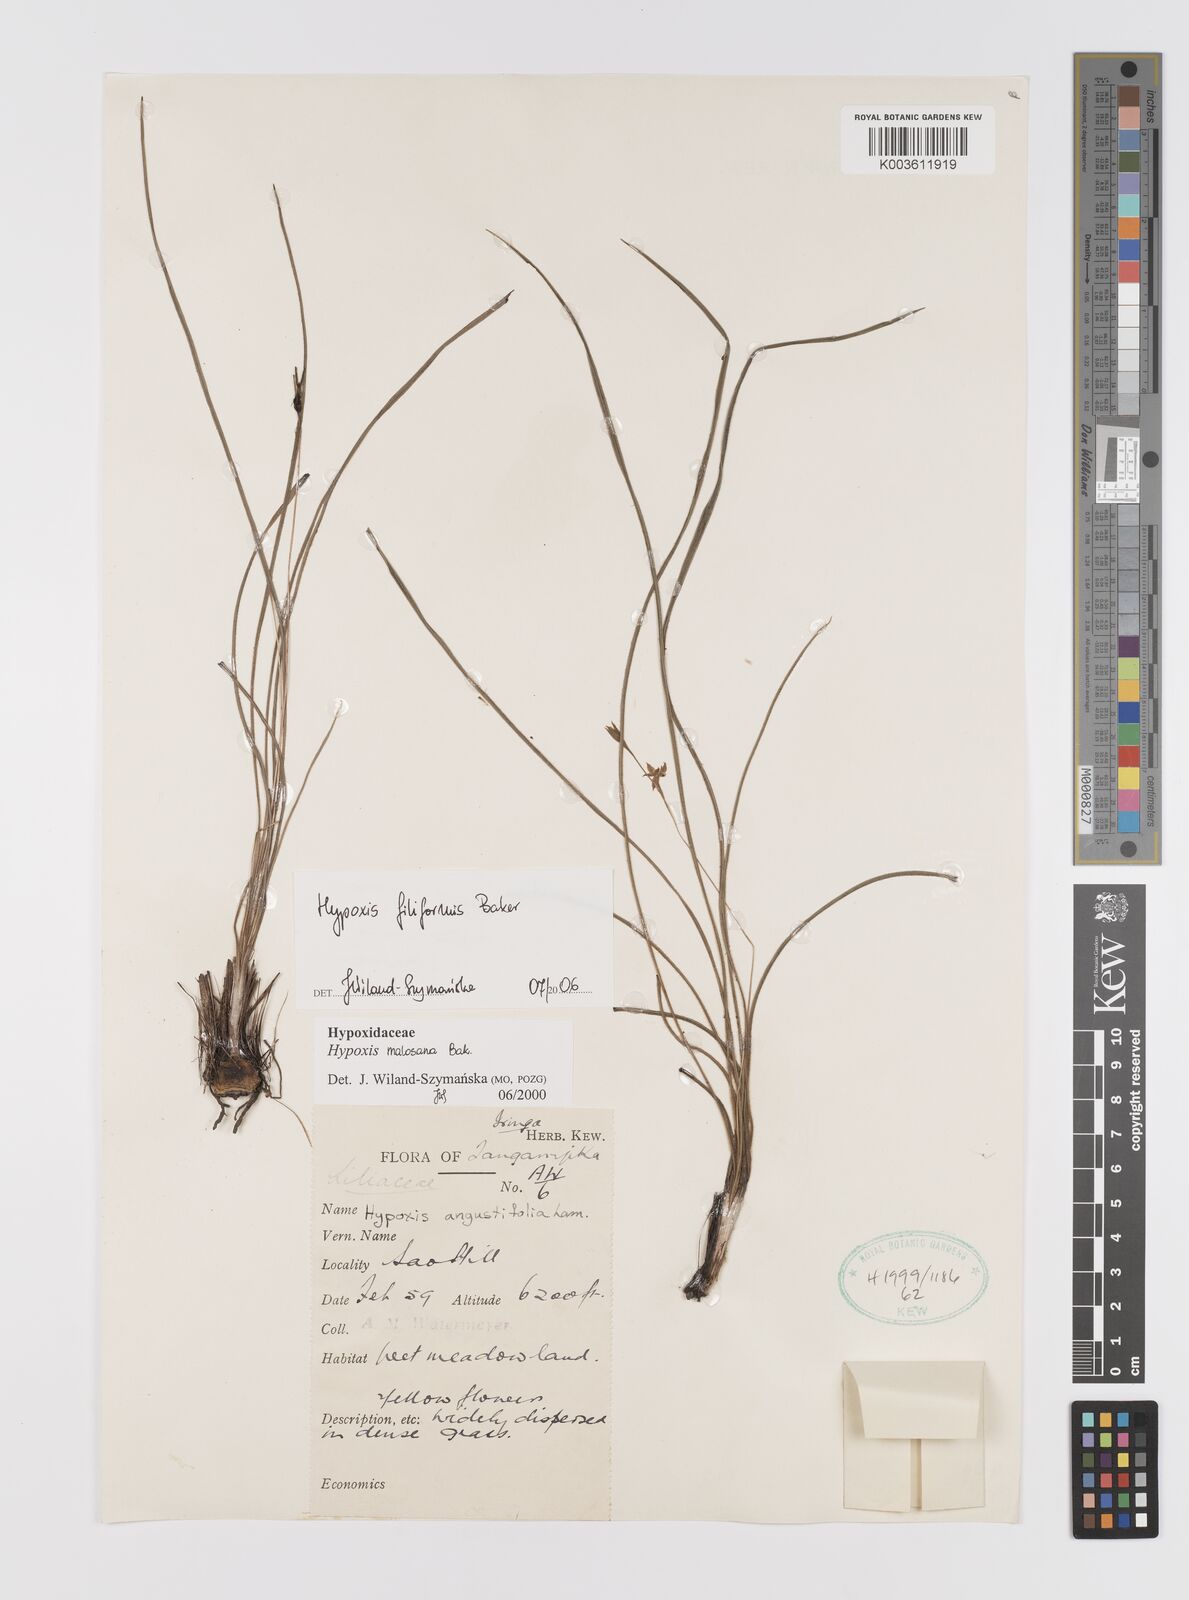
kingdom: Plantae
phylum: Tracheophyta
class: Liliopsida
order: Asparagales
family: Hypoxidaceae
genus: Hypoxis
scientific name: Hypoxis filiformis
